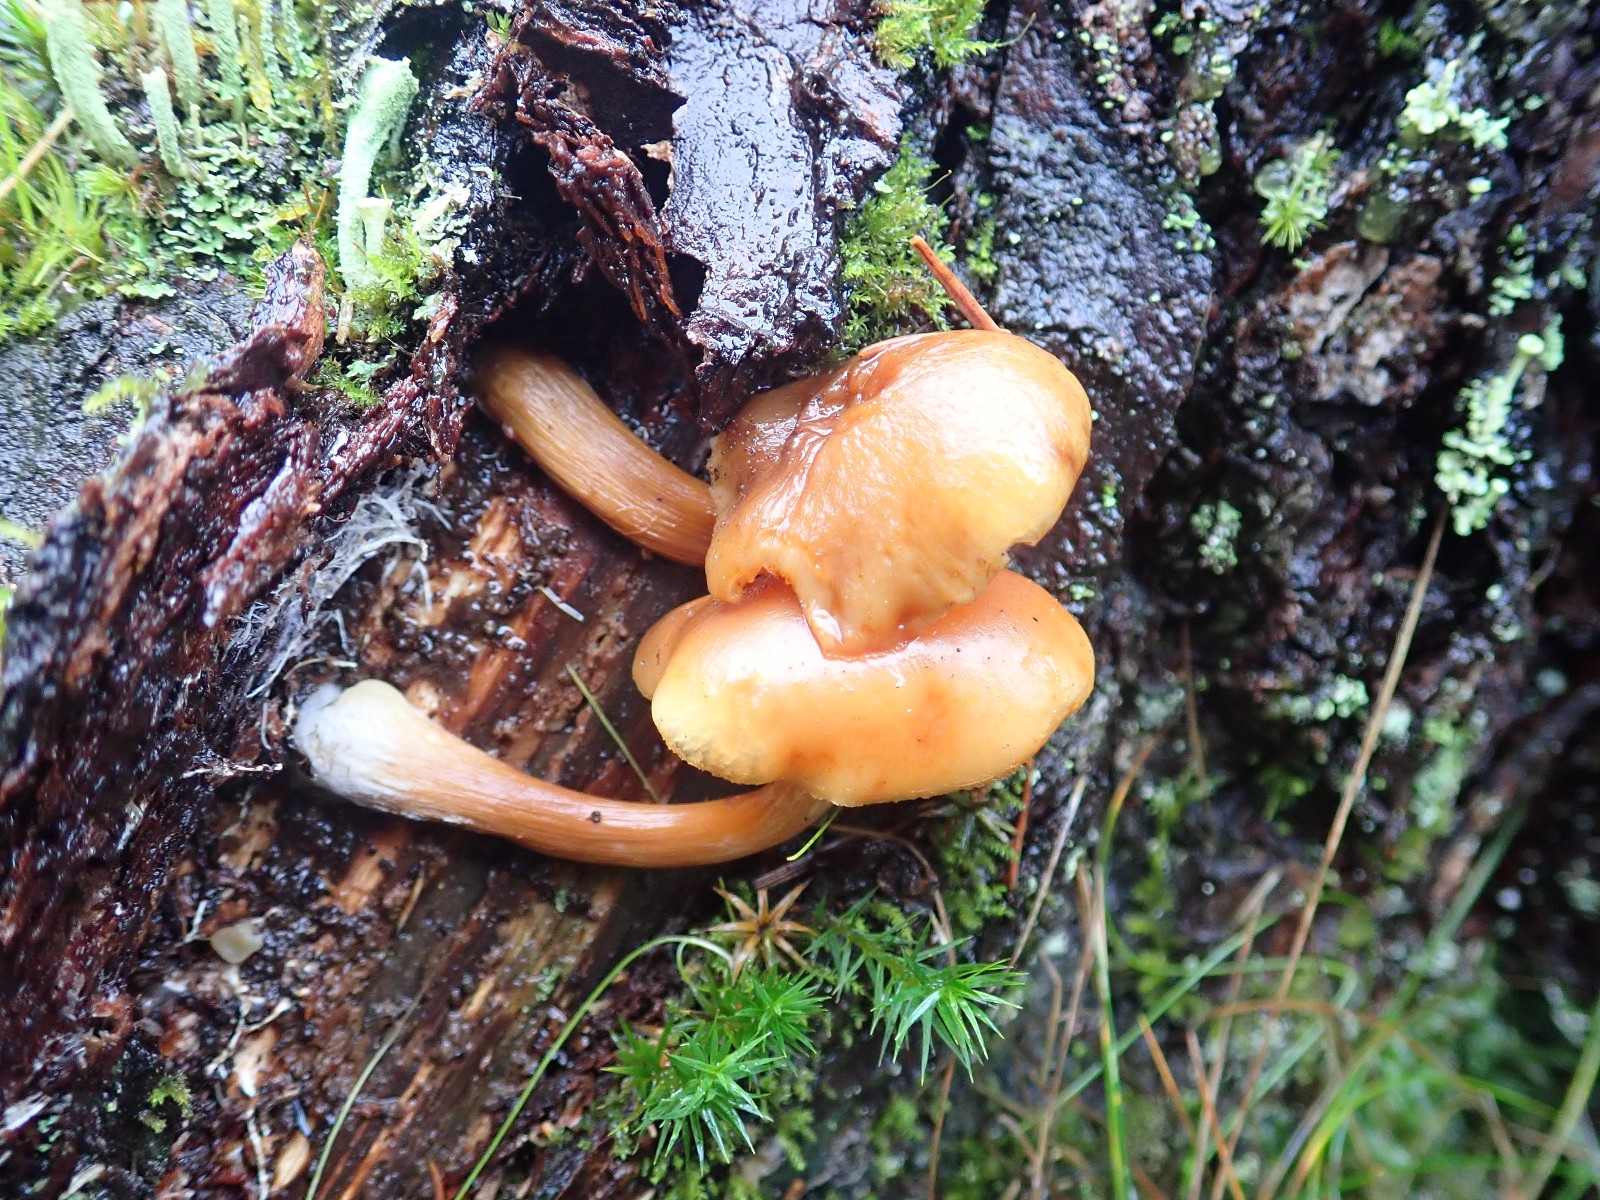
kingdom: Fungi
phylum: Basidiomycota
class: Agaricomycetes
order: Agaricales
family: Hymenogastraceae
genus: Galerina
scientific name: Galerina
